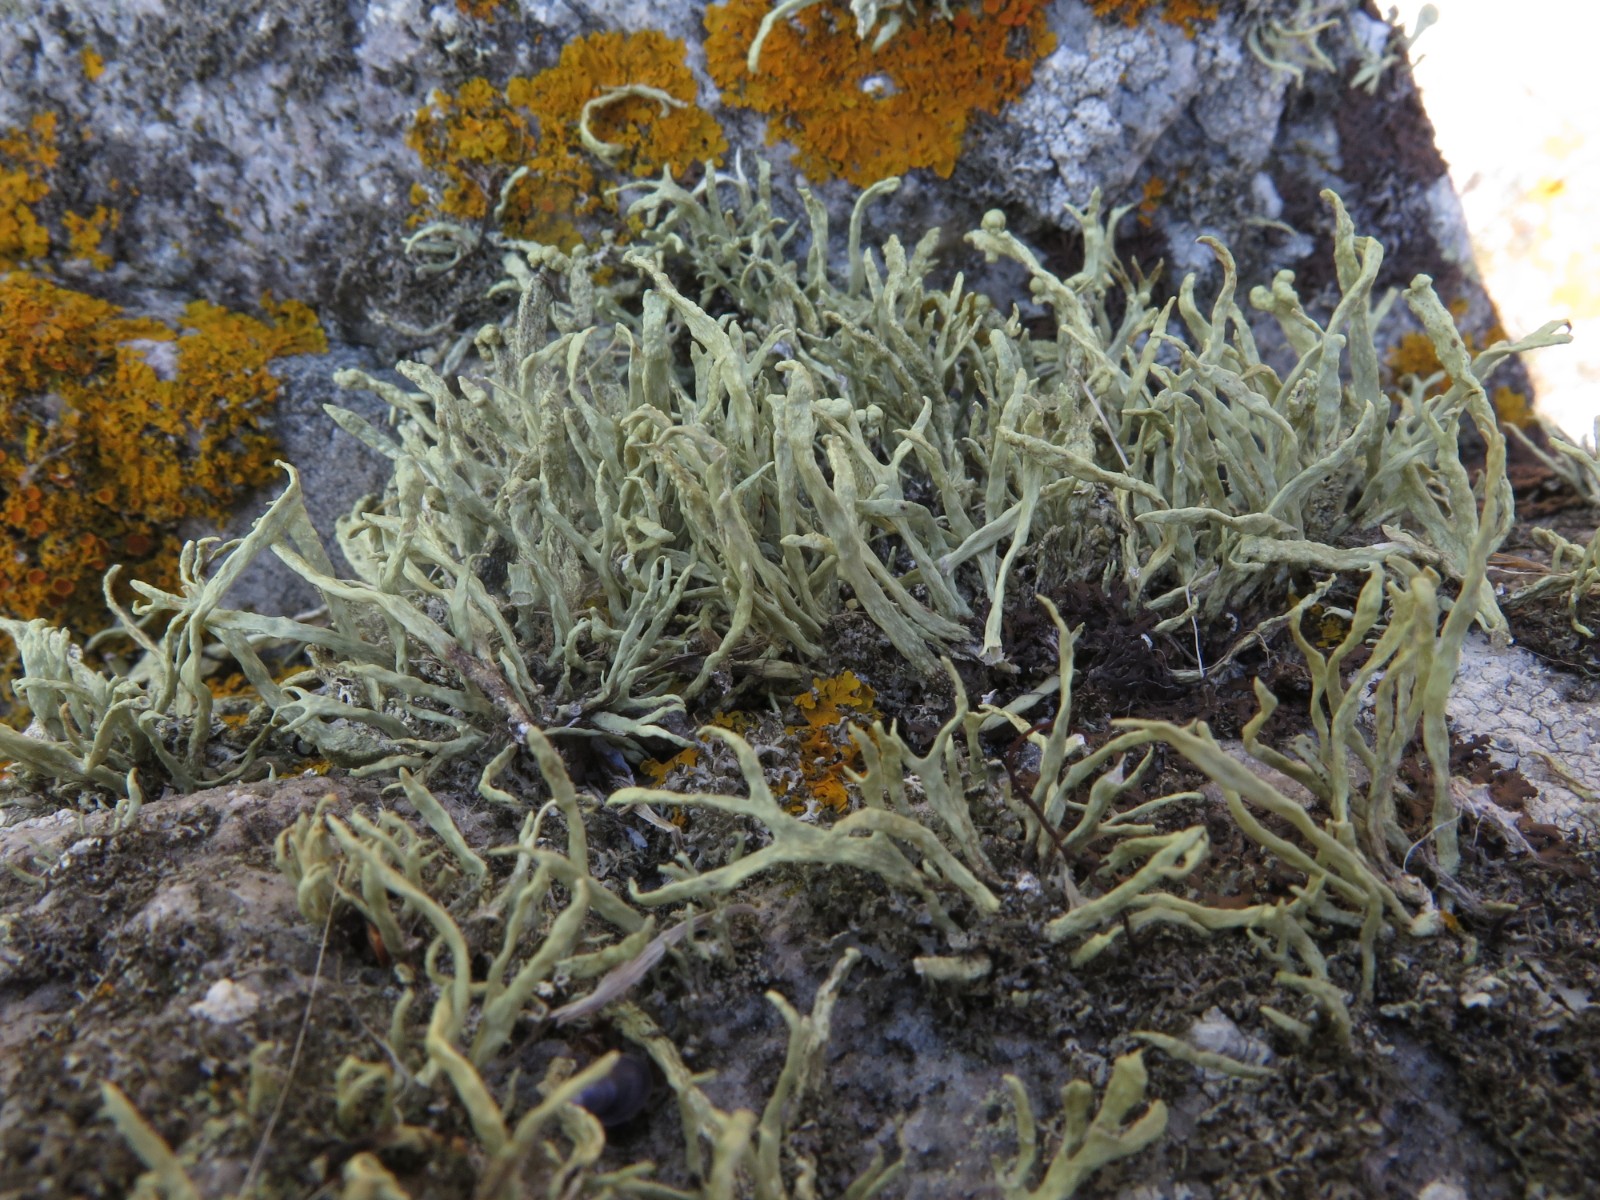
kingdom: Fungi
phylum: Ascomycota
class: Lecanoromycetes
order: Lecanorales
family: Ramalinaceae
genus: Ramalina
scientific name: Ramalina siliquosa
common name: klippe-grenlav
